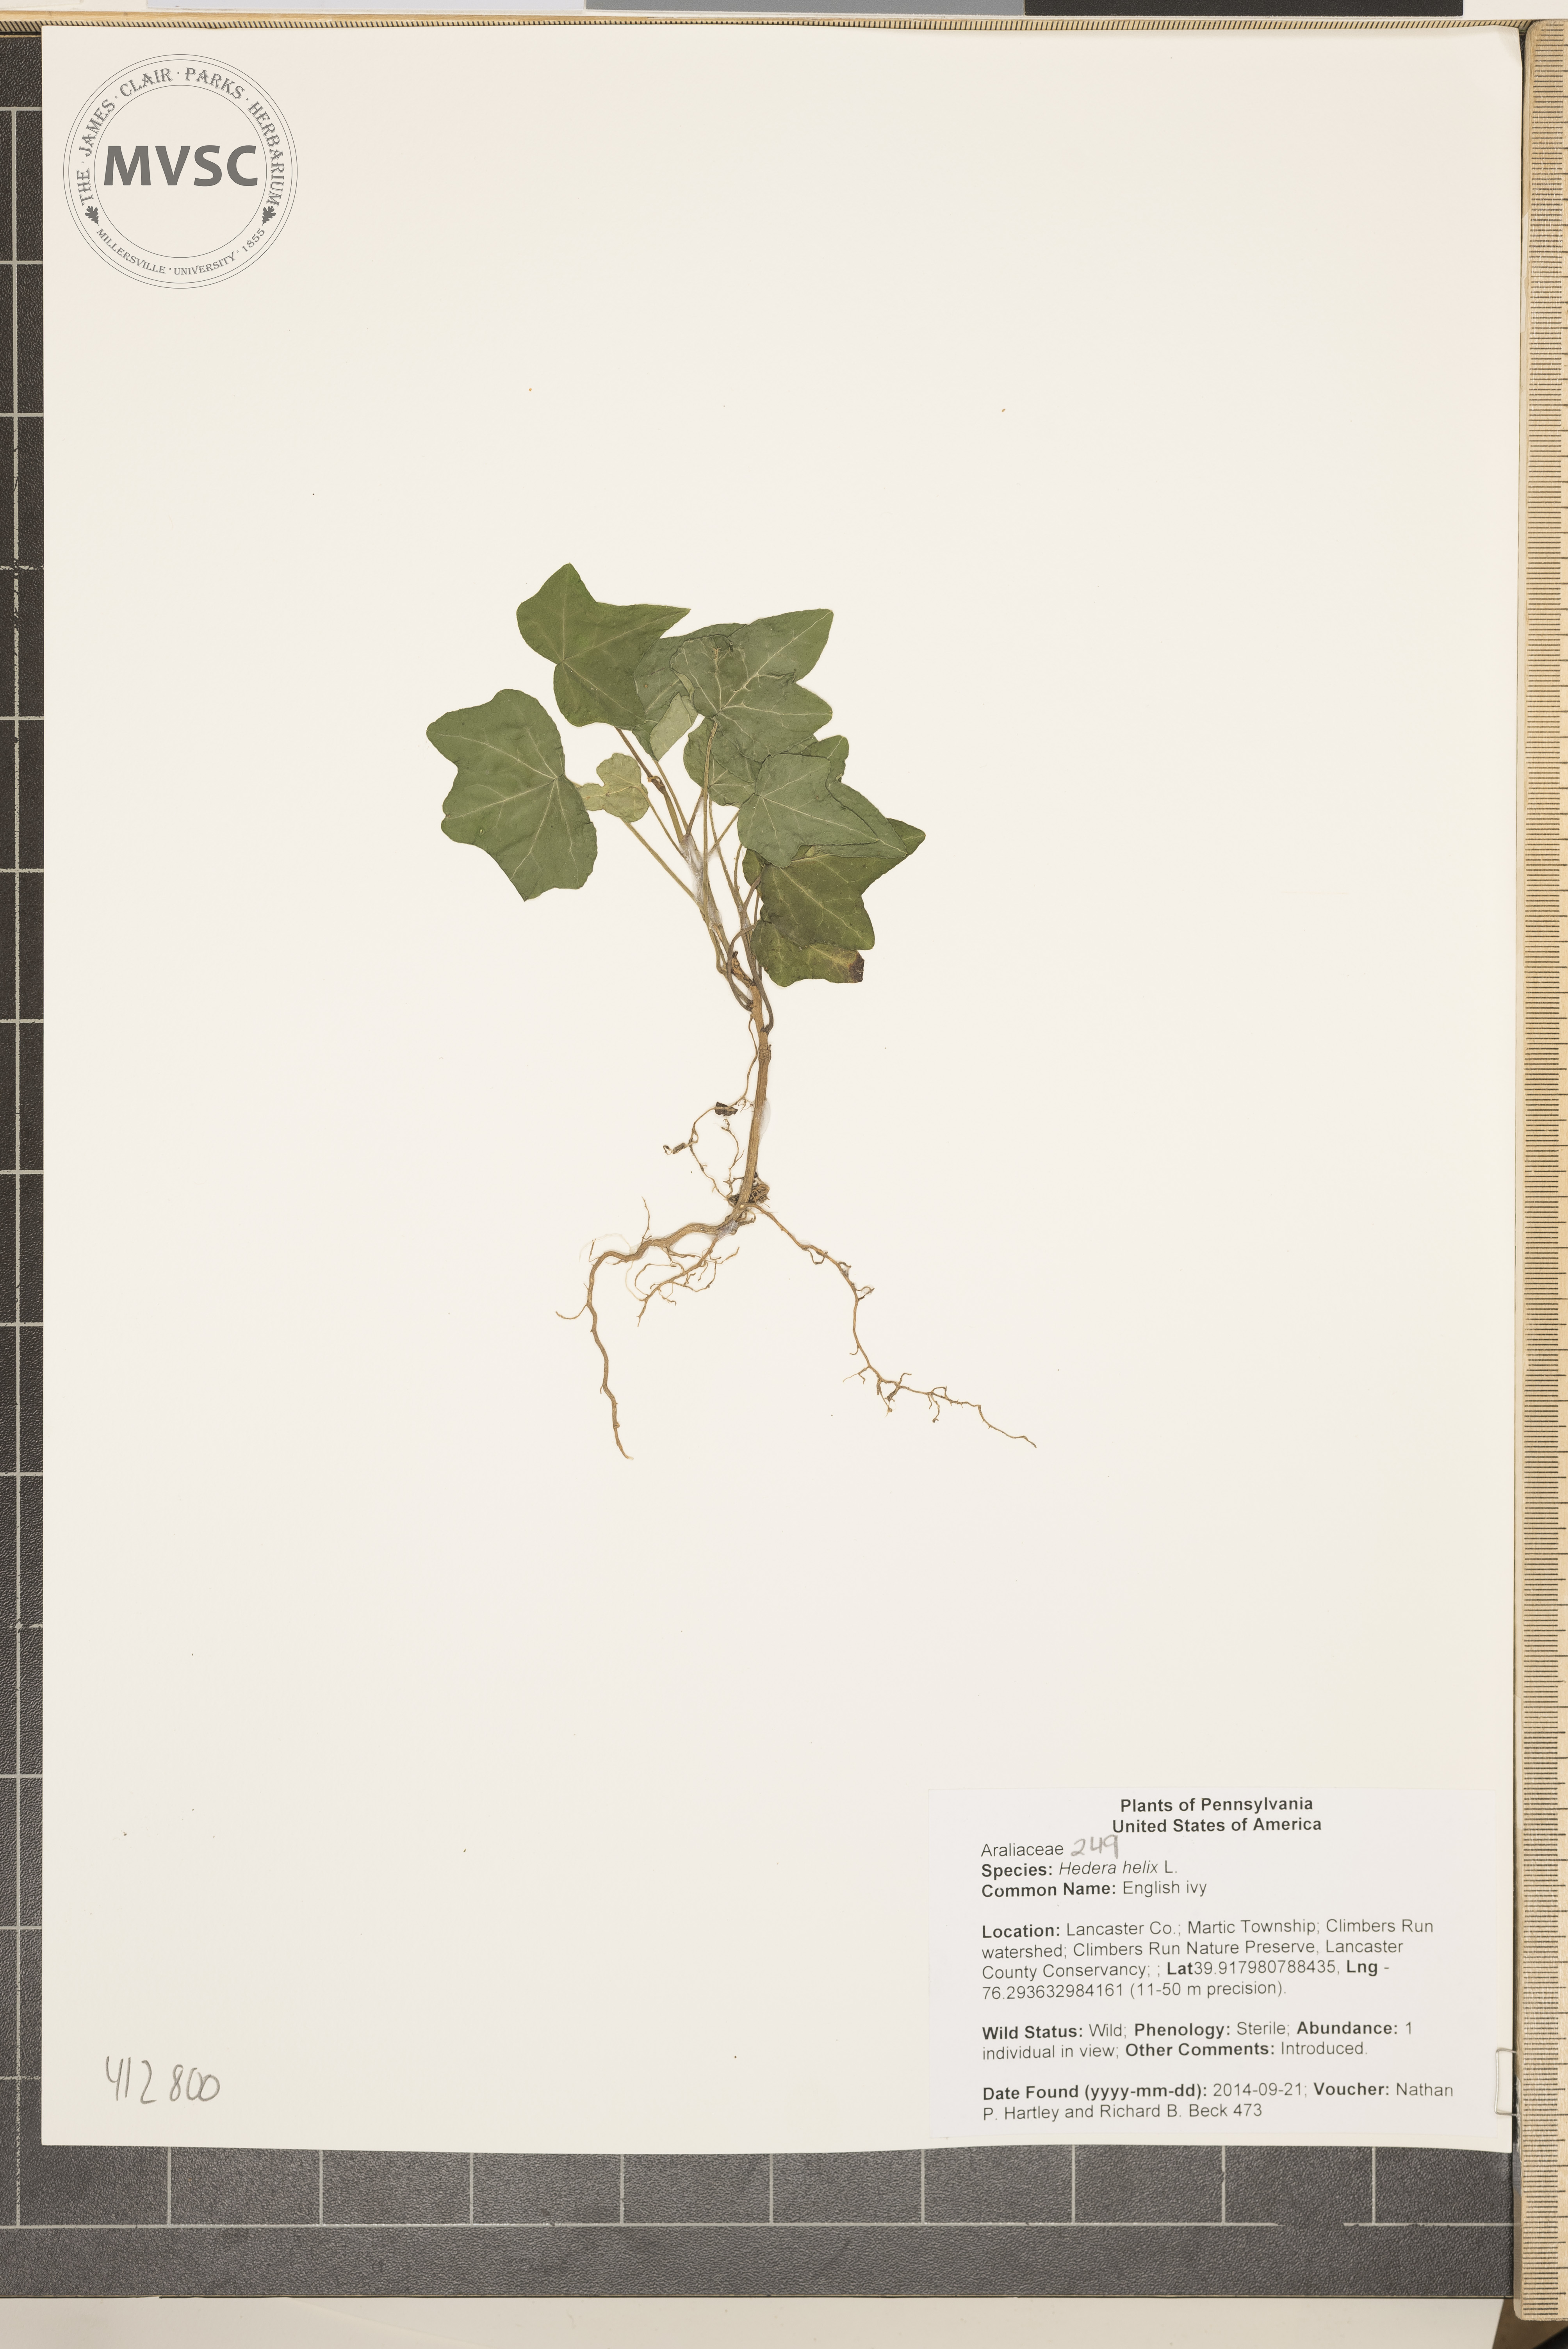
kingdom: Plantae
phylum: Tracheophyta
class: Magnoliopsida
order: Apiales
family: Araliaceae
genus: Hedera
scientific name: Hedera helix
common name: English ivy
